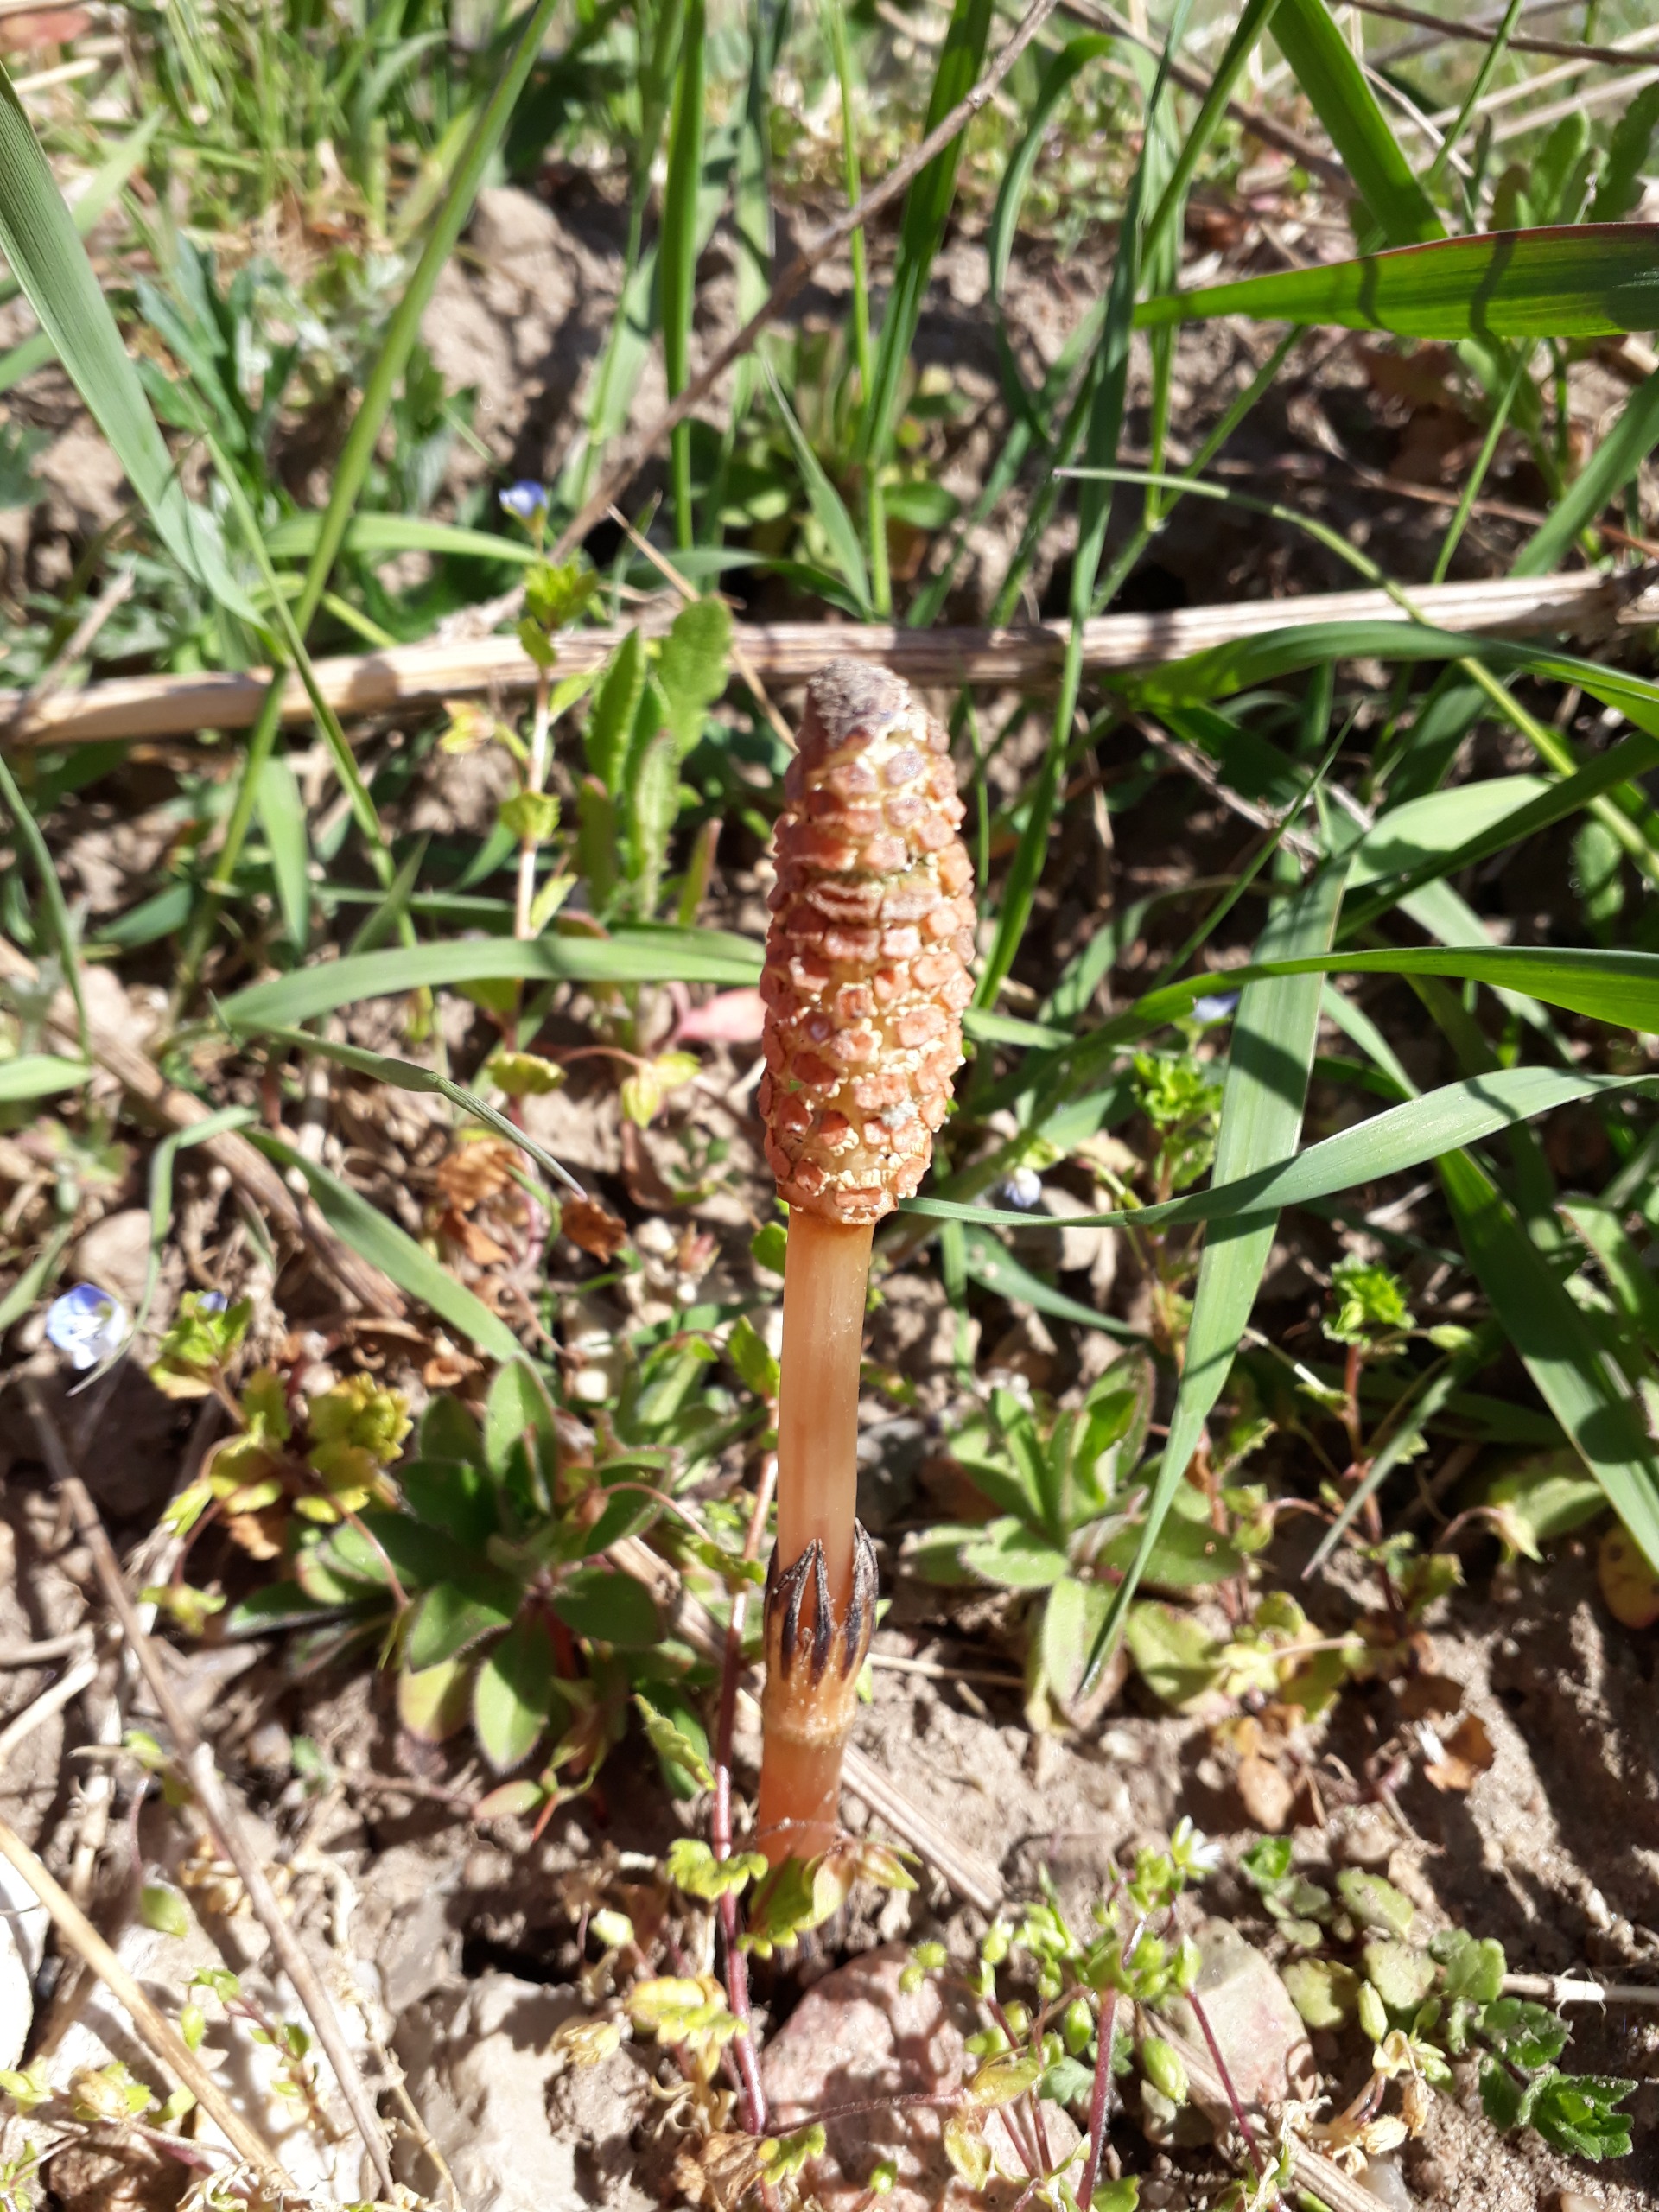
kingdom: Plantae
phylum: Tracheophyta
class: Polypodiopsida
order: Equisetales
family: Equisetaceae
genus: Equisetum
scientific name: Equisetum arvense
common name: Ager-padderok
